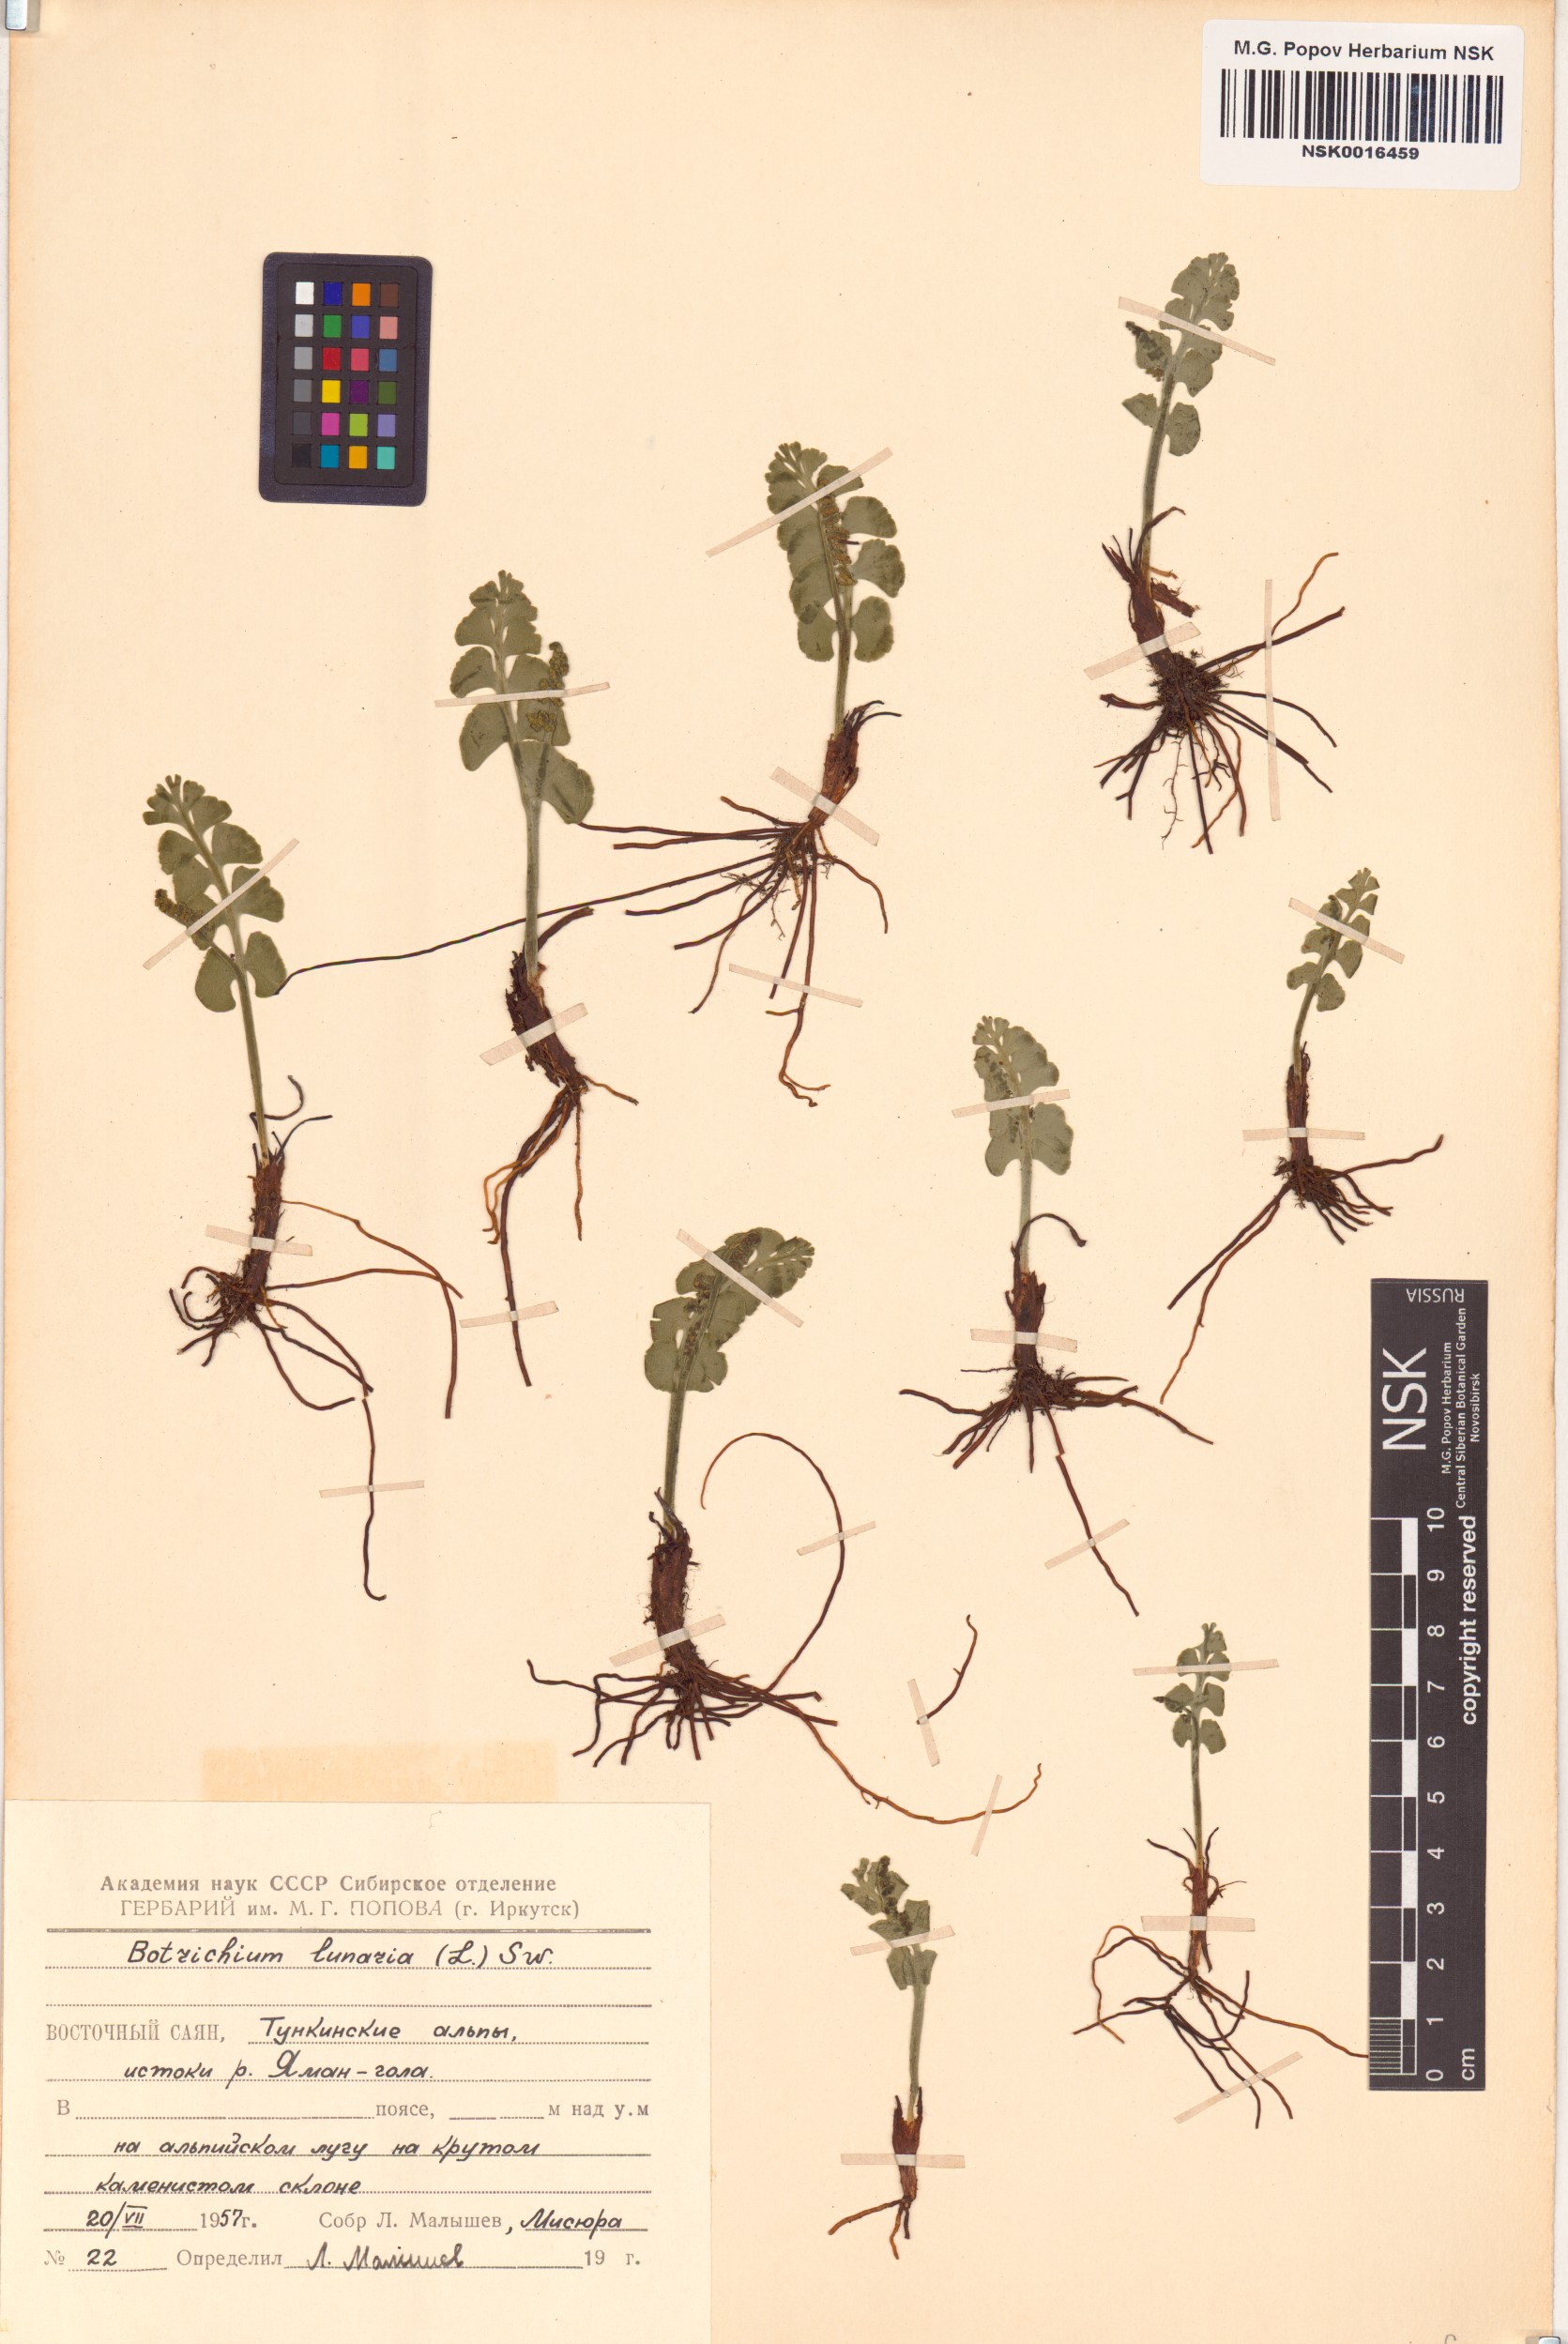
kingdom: Plantae
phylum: Tracheophyta
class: Polypodiopsida
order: Ophioglossales
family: Ophioglossaceae
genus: Botrychium
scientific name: Botrychium lunaria
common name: Moonwort
